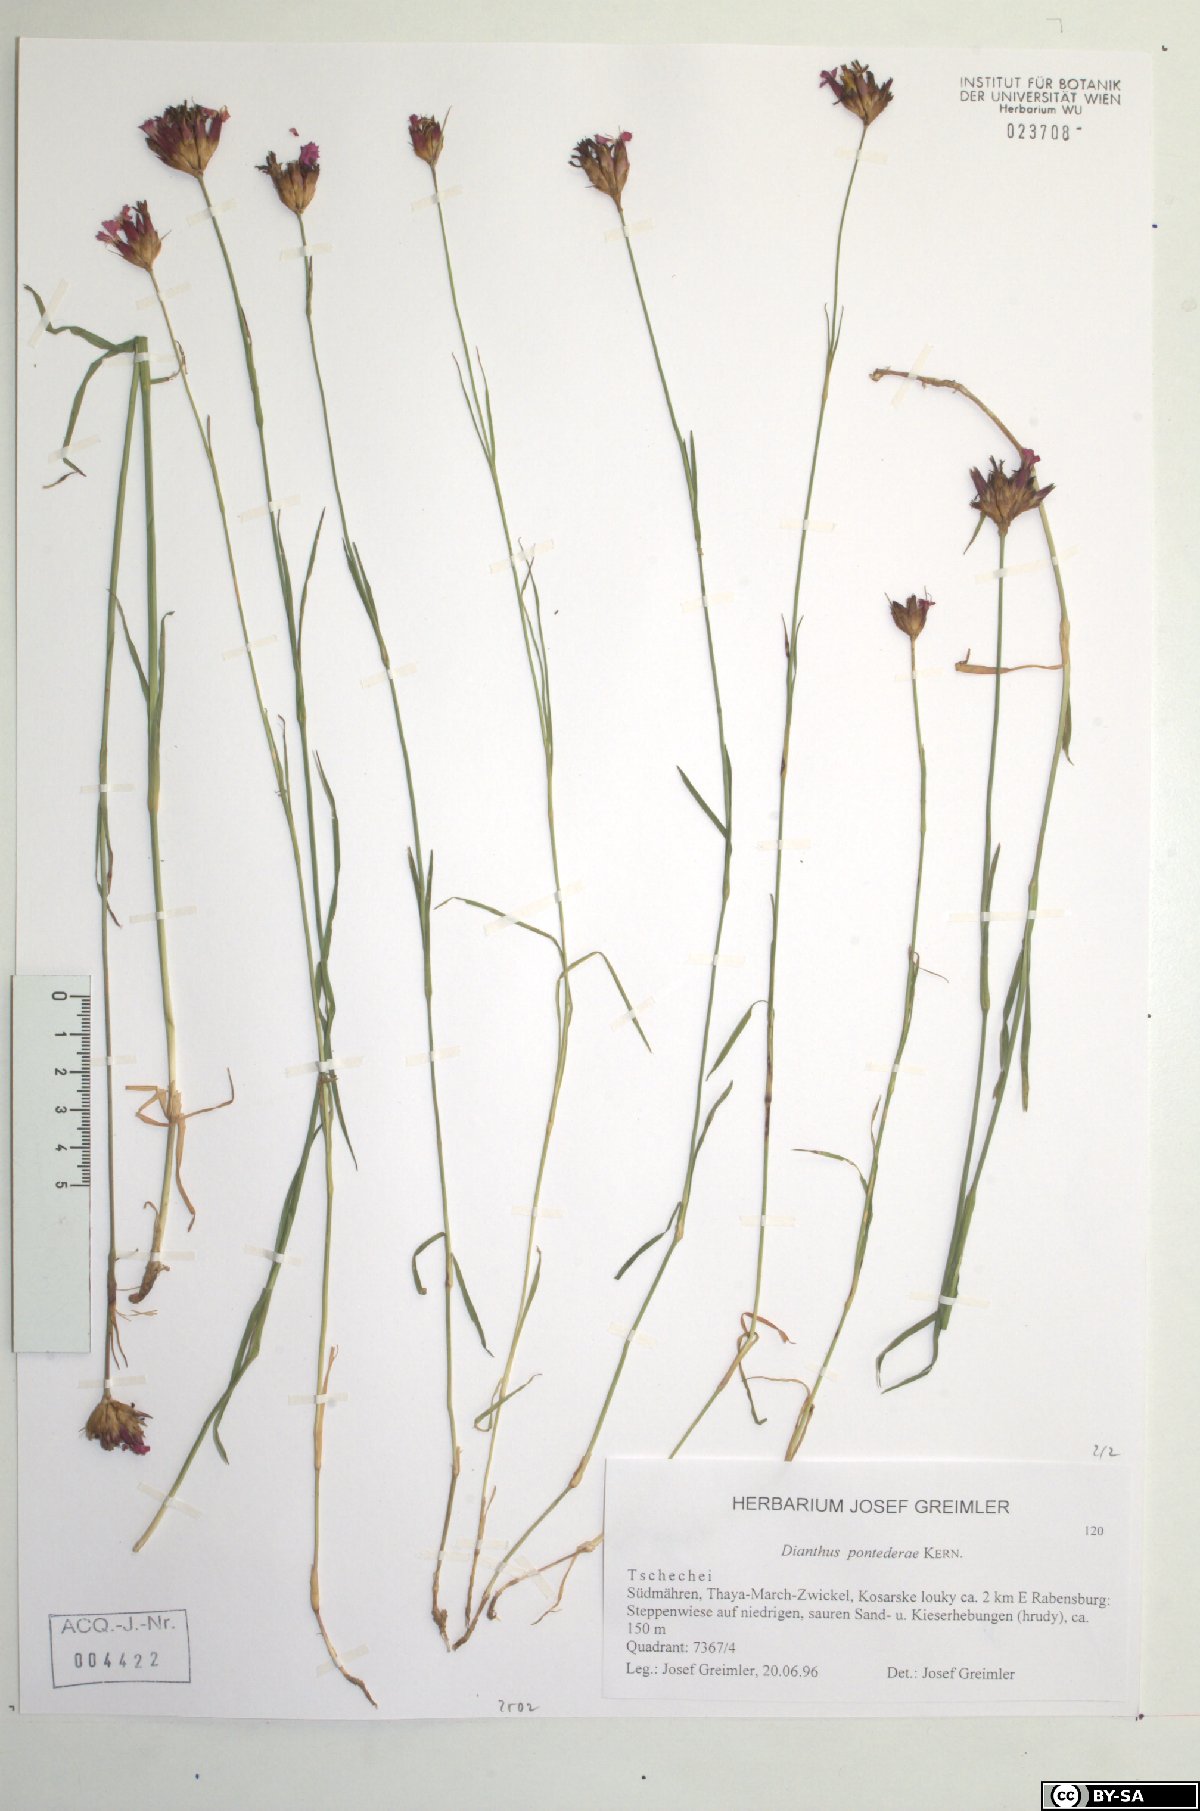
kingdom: Plantae
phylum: Tracheophyta
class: Magnoliopsida
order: Caryophyllales
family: Caryophyllaceae
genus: Dianthus
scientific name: Dianthus pontederae
